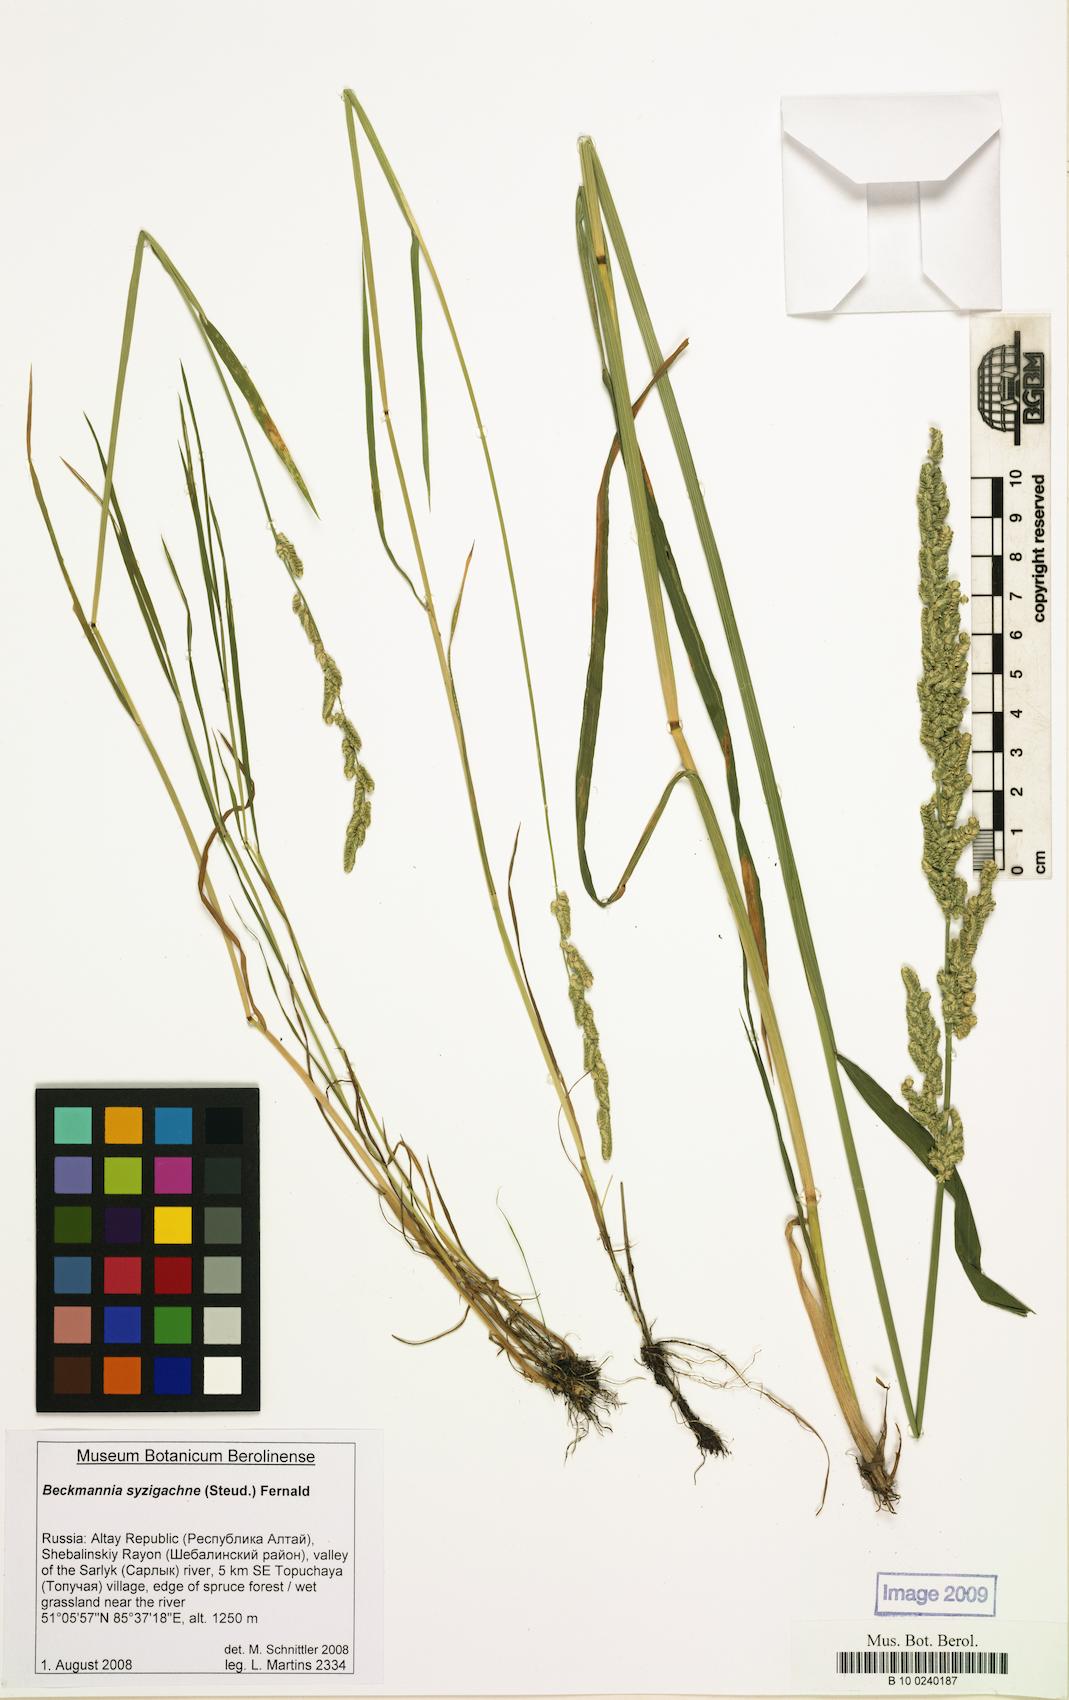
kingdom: Plantae
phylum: Tracheophyta
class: Liliopsida
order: Poales
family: Poaceae
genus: Beckmannia
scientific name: Beckmannia syzigachne
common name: American slough-grass
